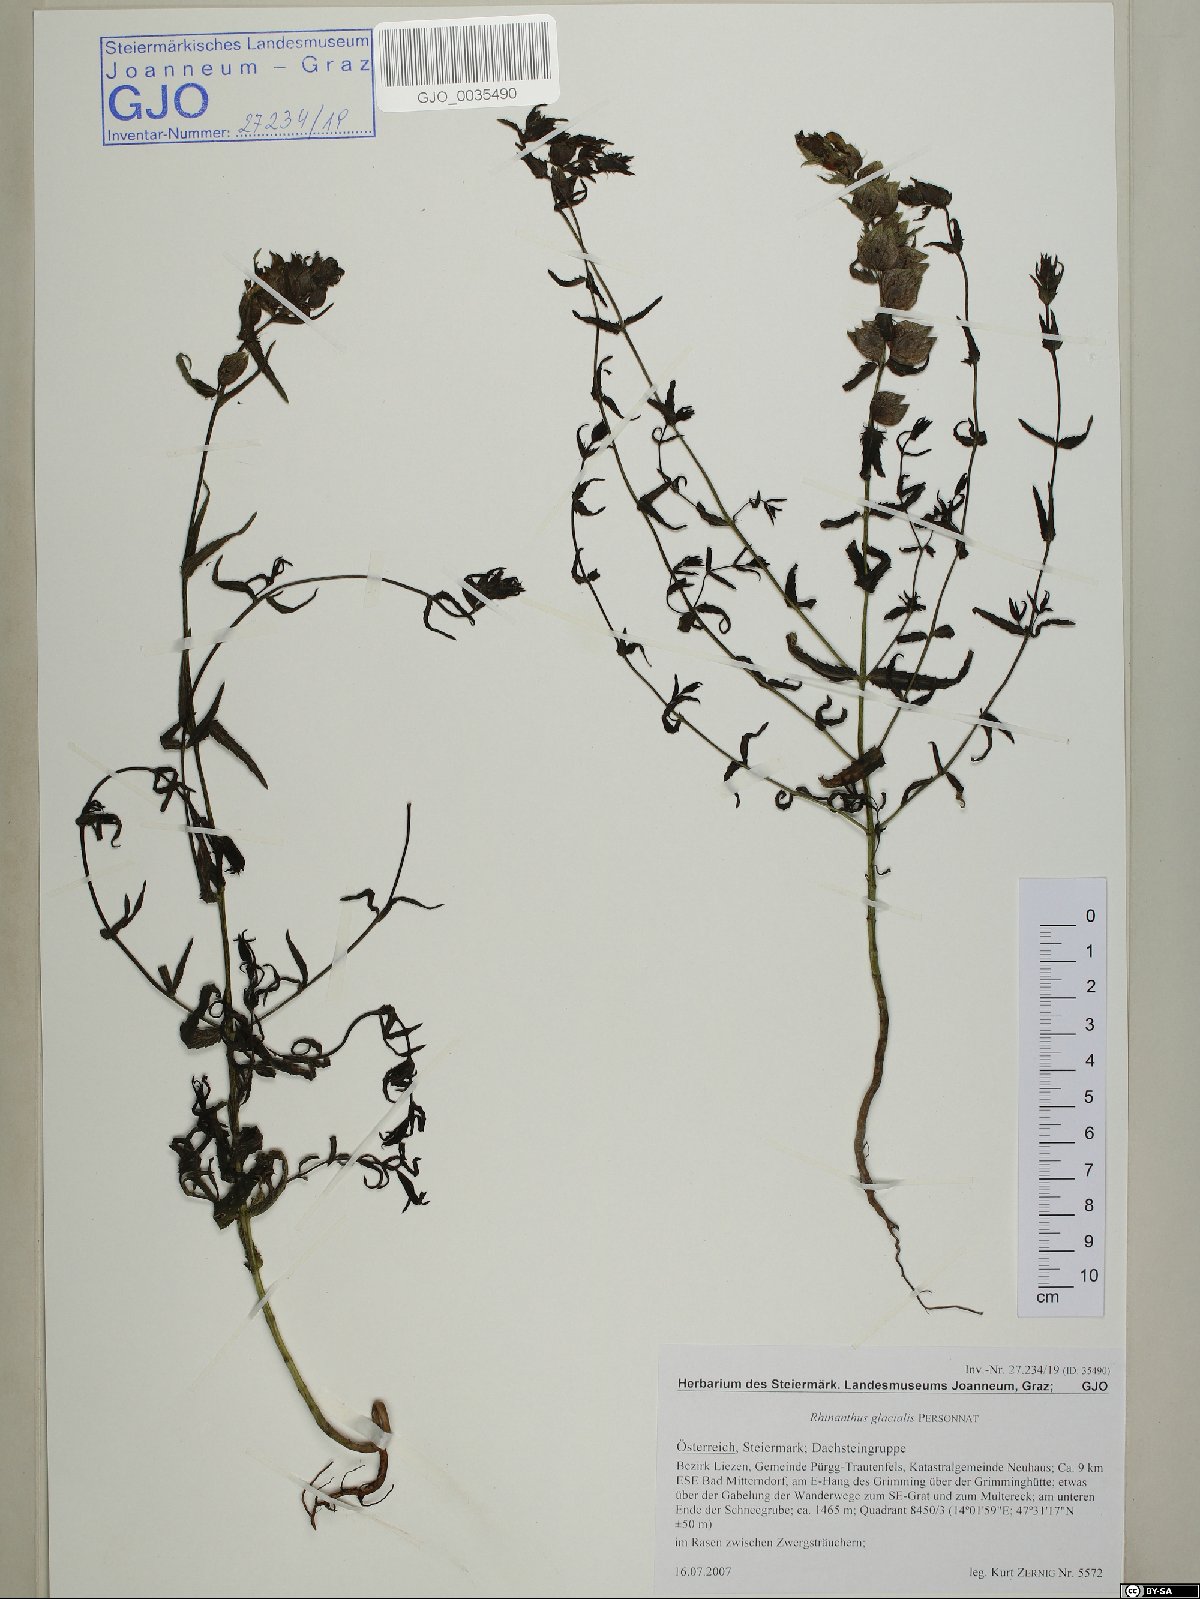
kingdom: Plantae
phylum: Tracheophyta
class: Magnoliopsida
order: Lamiales
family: Orobanchaceae
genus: Rhinanthus
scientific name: Rhinanthus glacialis
